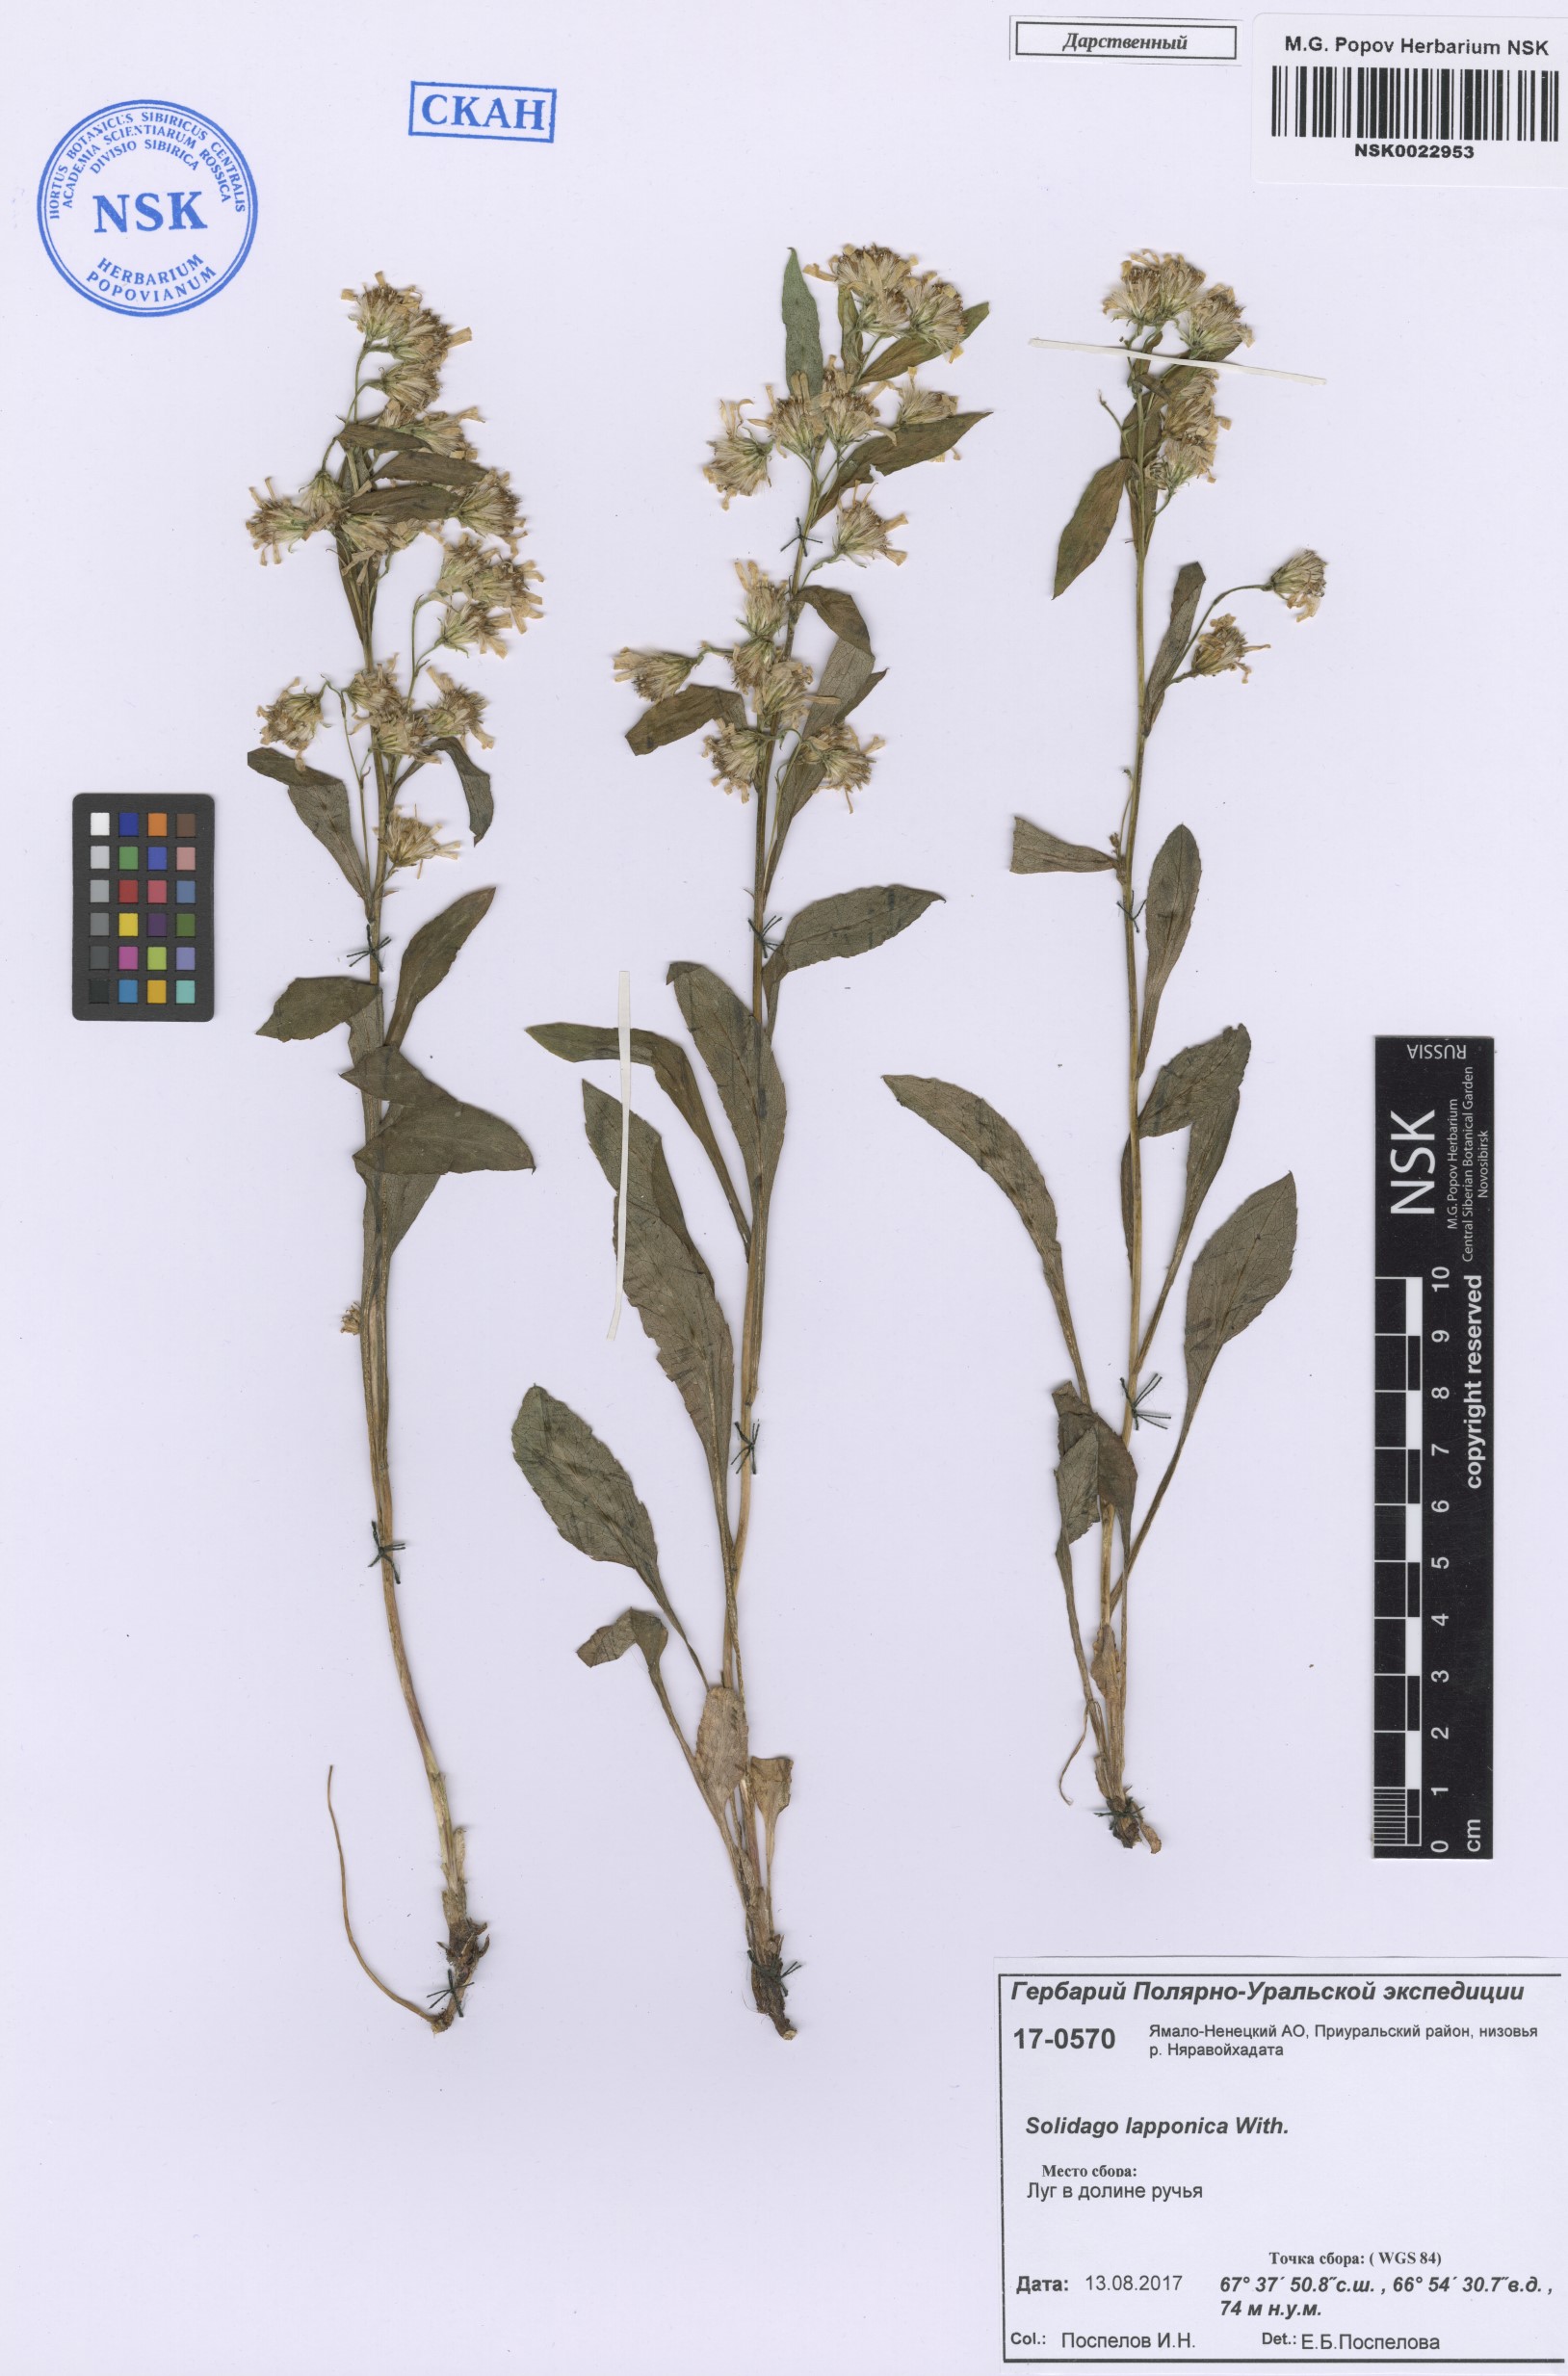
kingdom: Plantae
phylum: Tracheophyta
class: Magnoliopsida
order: Asterales
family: Asteraceae
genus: Solidago
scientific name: Solidago virgaurea
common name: Goldenrod
